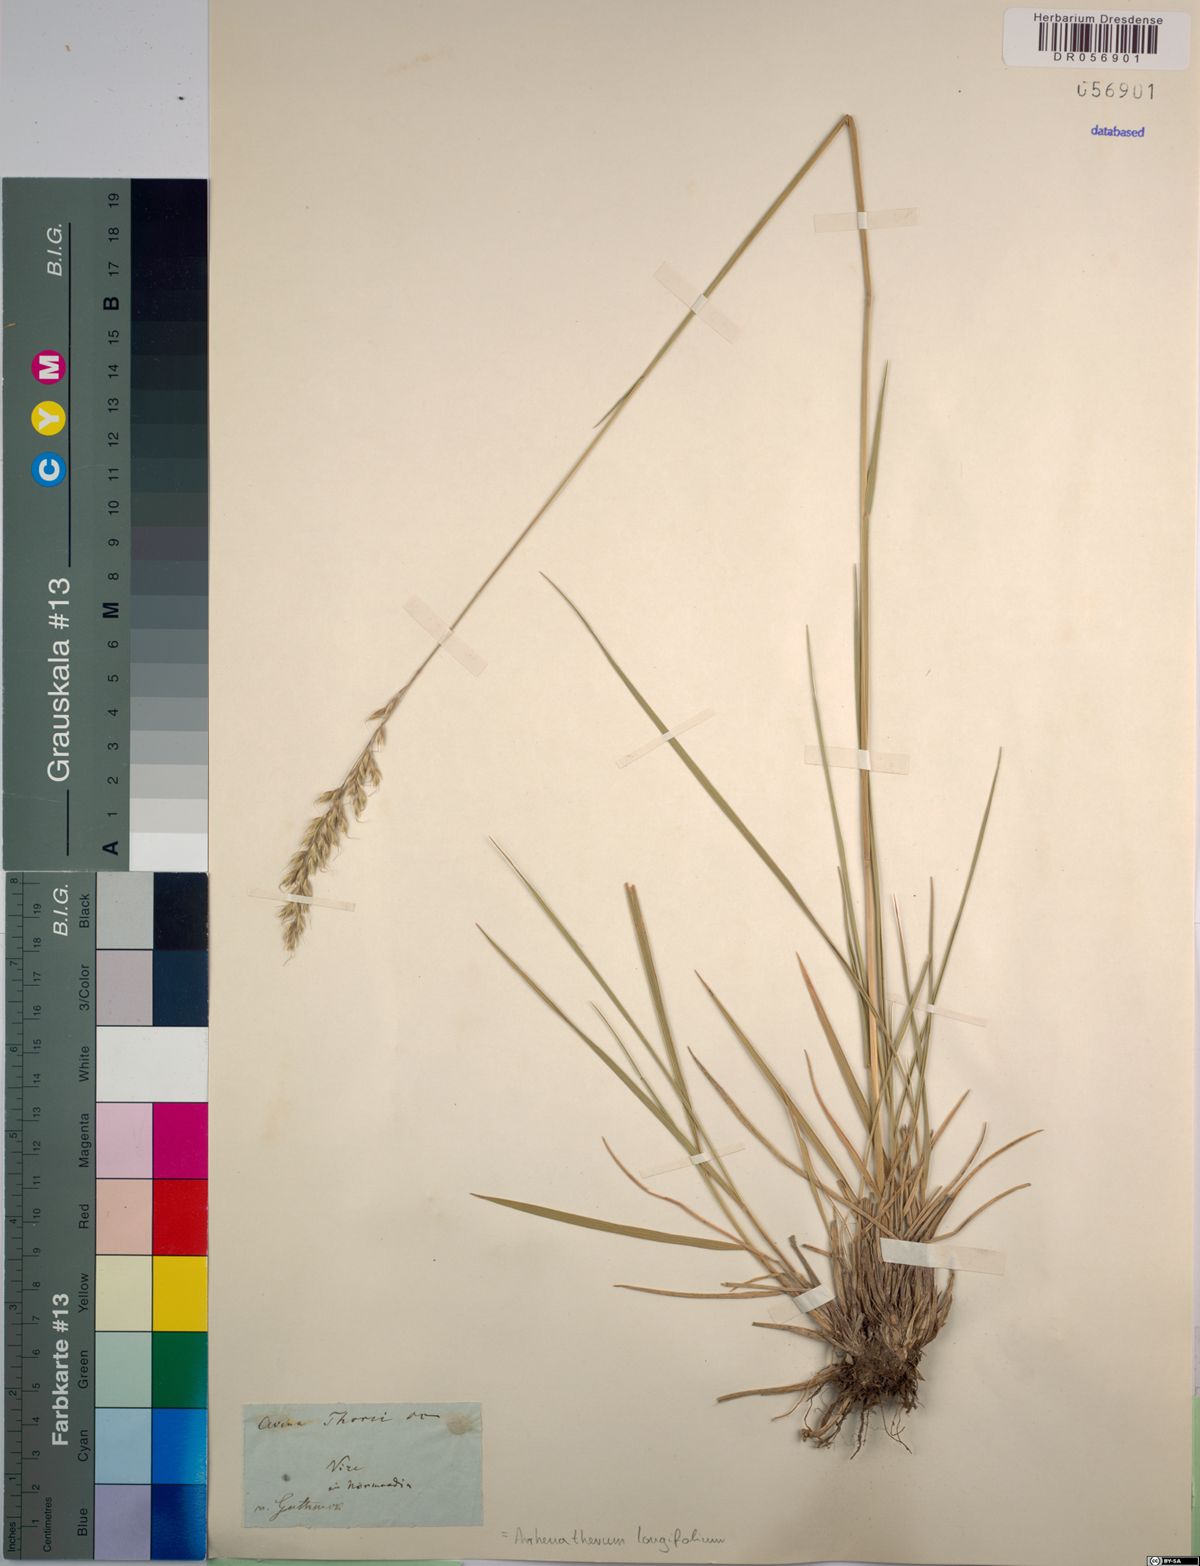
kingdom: Plantae
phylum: Tracheophyta
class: Liliopsida
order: Poales
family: Poaceae
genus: Arrhenatherum
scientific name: Arrhenatherum longifolium
